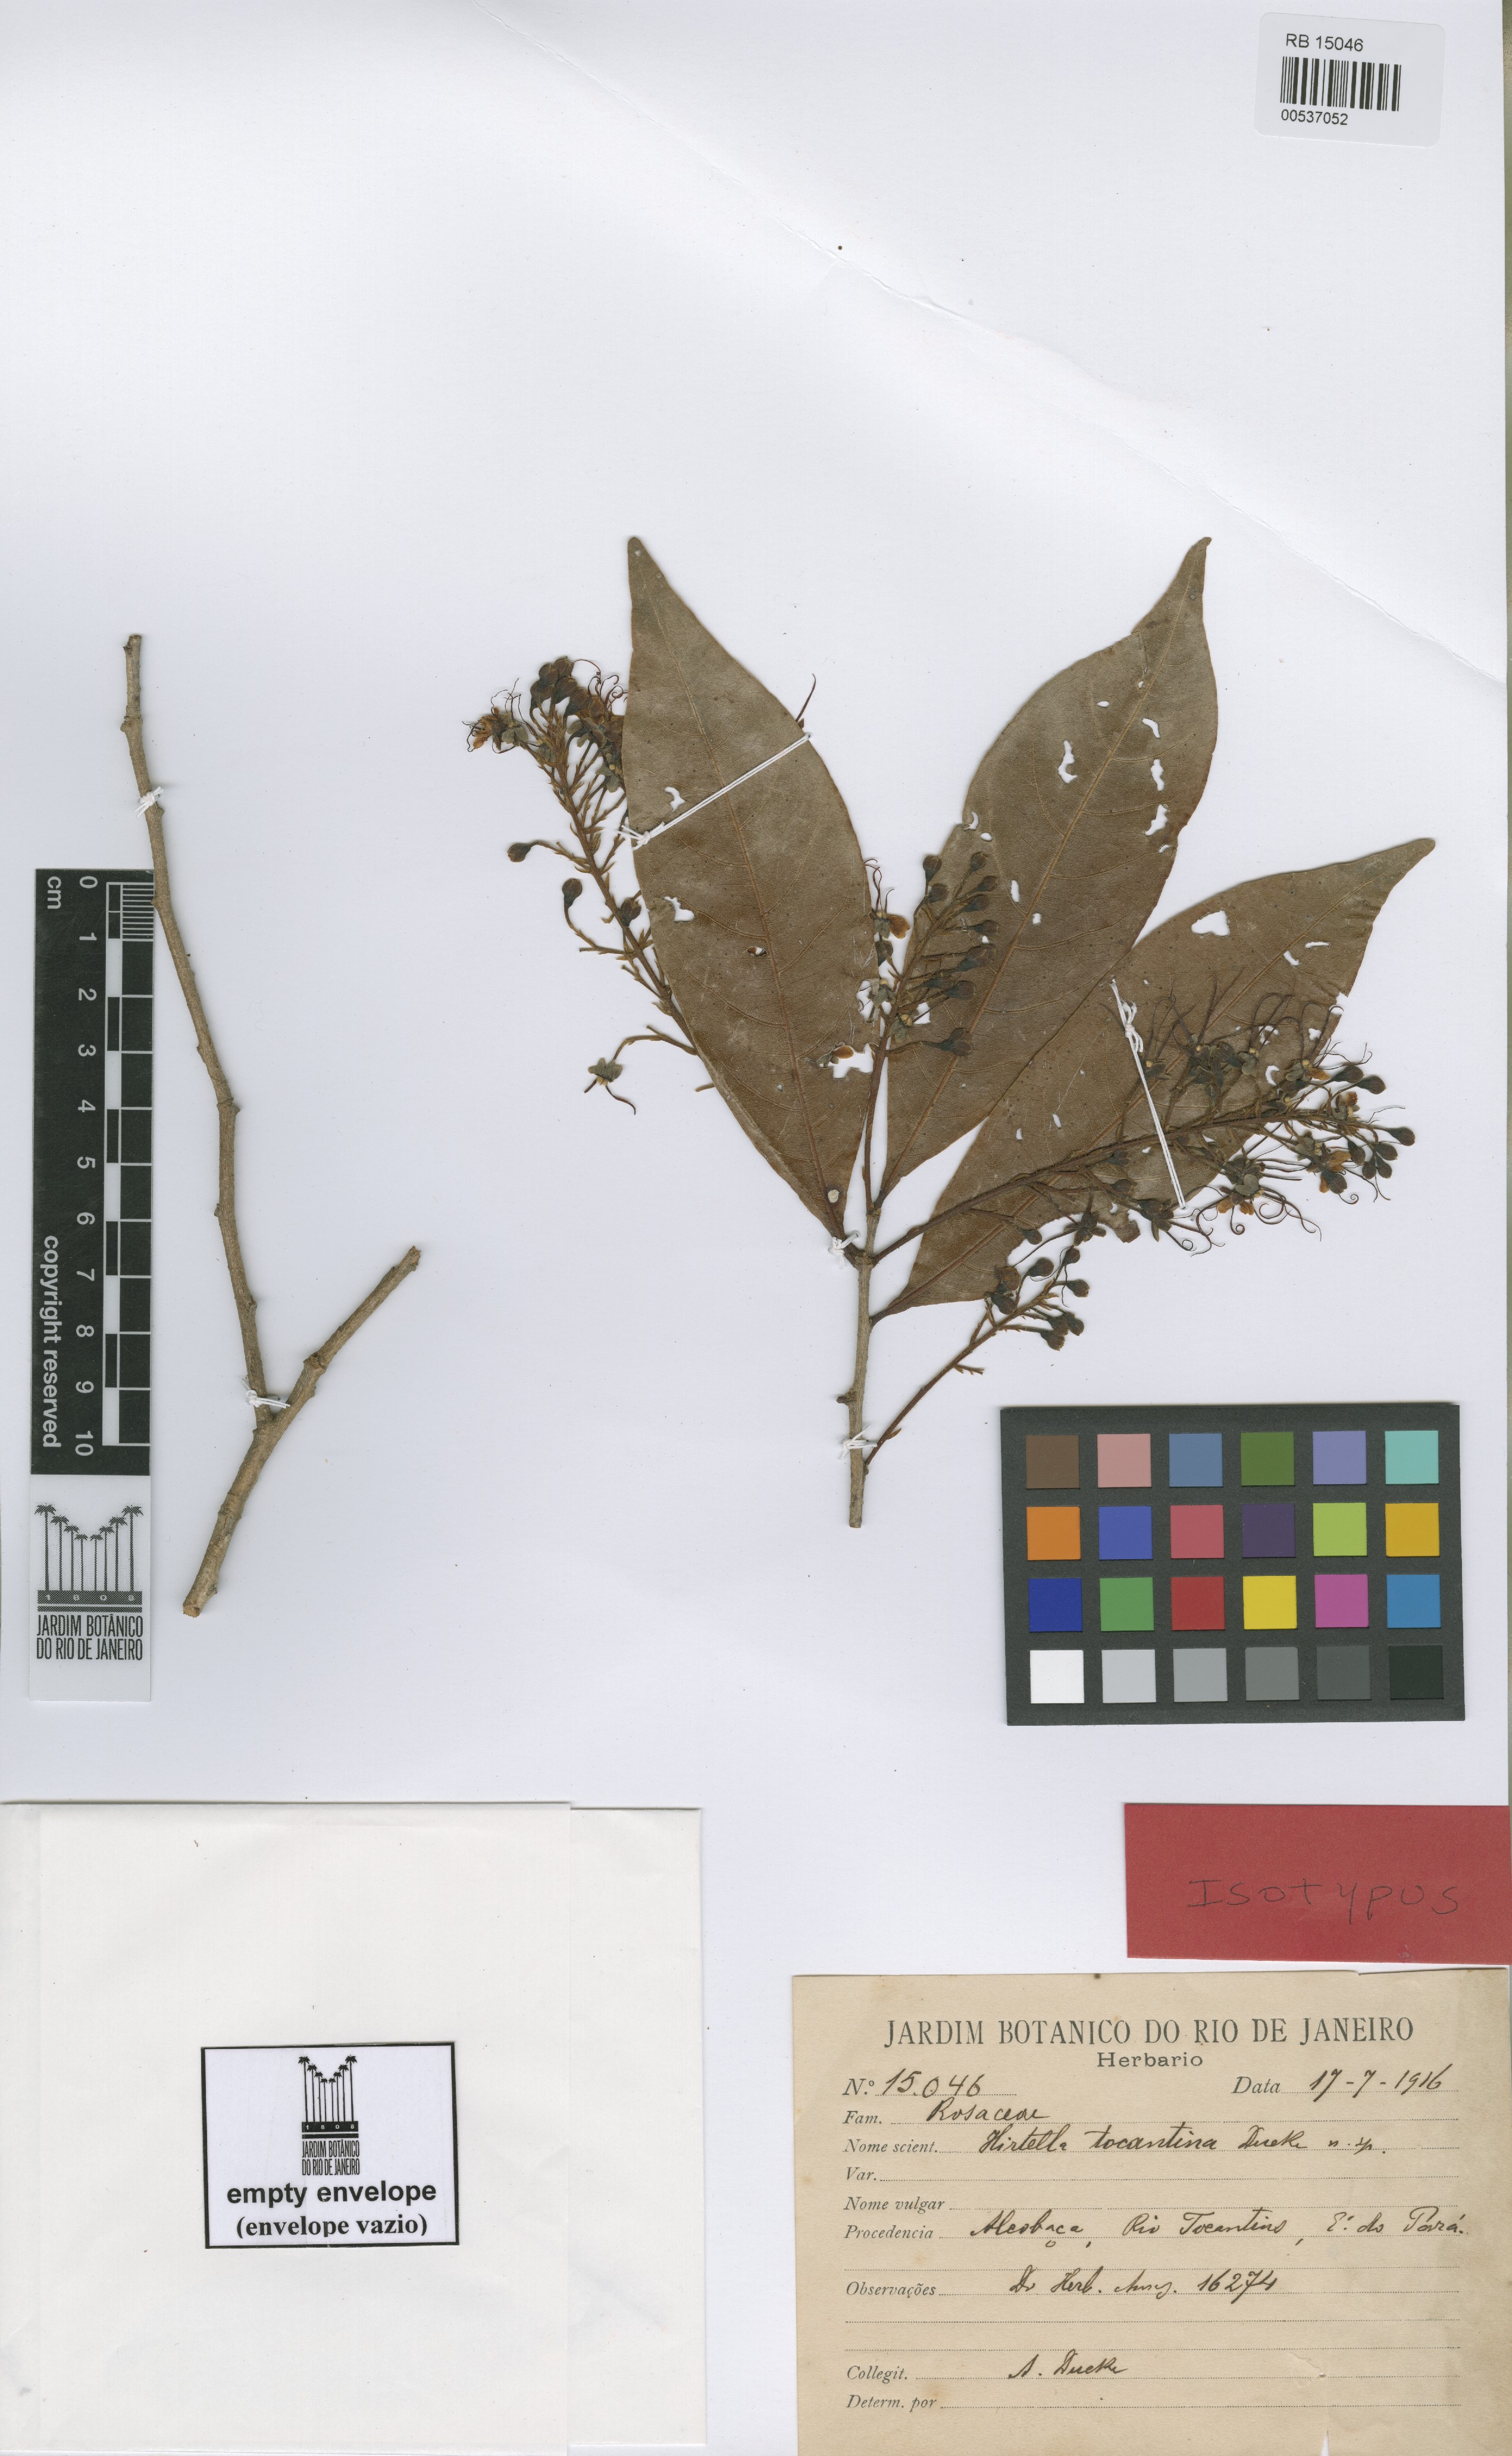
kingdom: Plantae
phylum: Tracheophyta
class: Magnoliopsida
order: Malpighiales
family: Chrysobalanaceae
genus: Hirtella
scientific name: Hirtella tocantina
